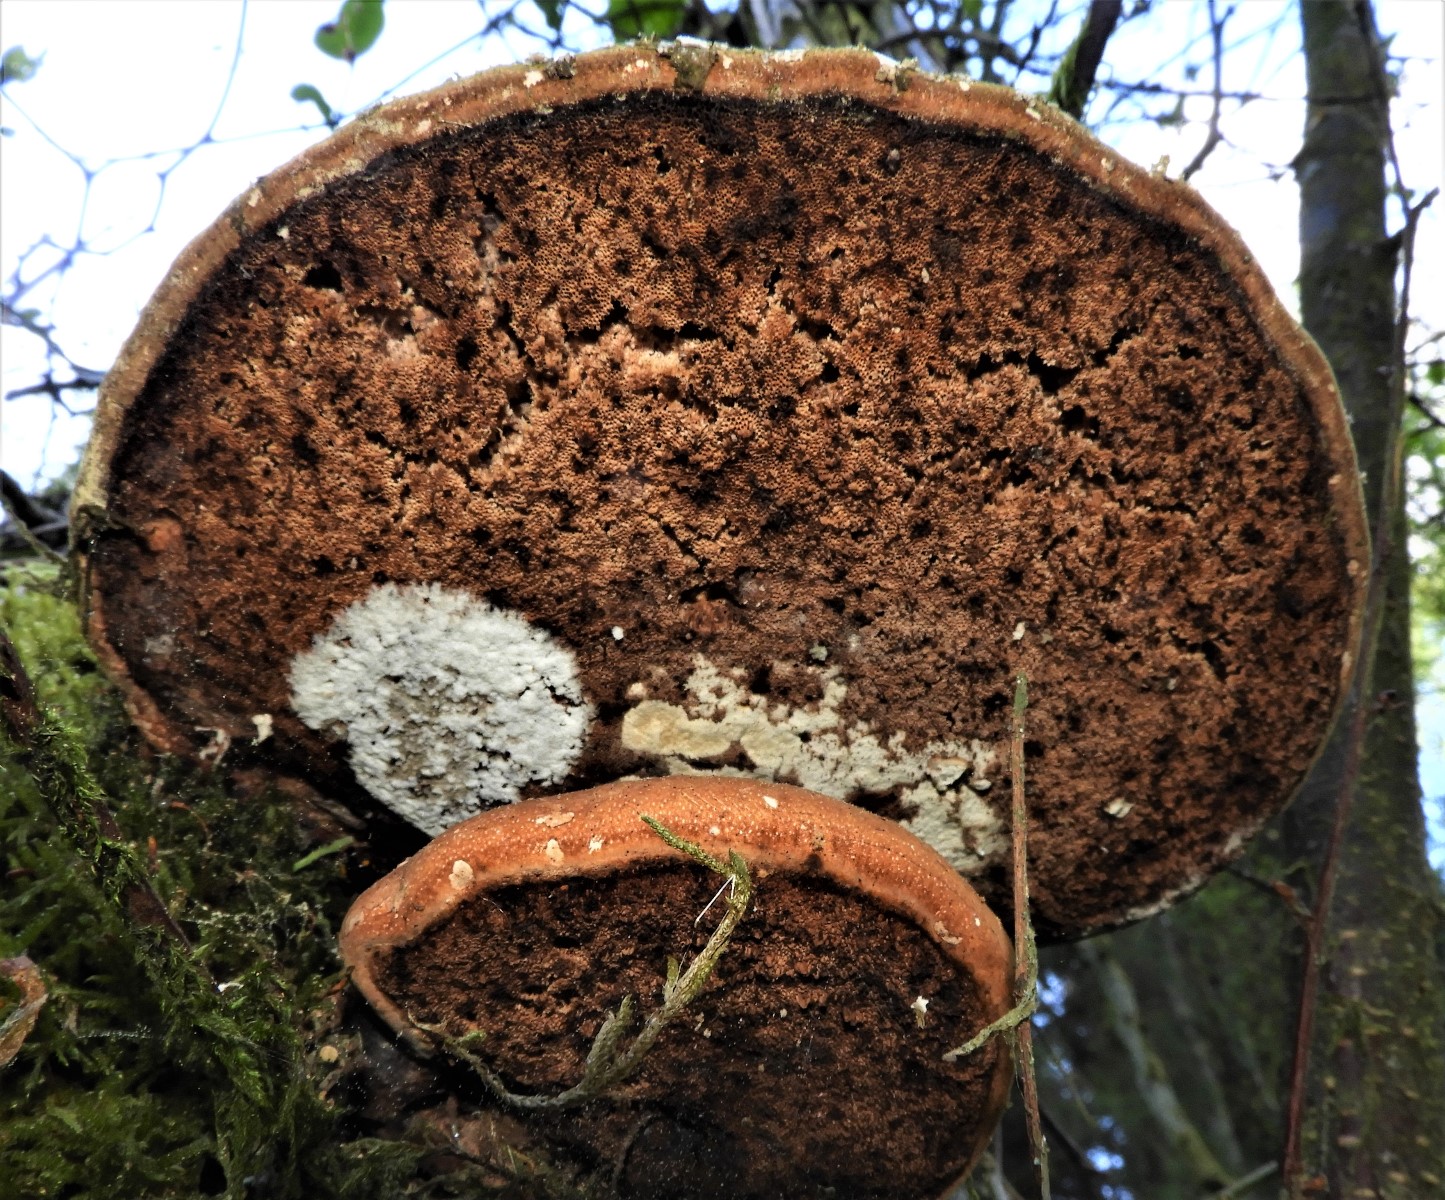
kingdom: Fungi
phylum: Basidiomycota
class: Agaricomycetes
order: Polyporales
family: Fomitopsidaceae
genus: Fomitopsis
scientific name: Fomitopsis betulina
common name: birkeporesvamp
